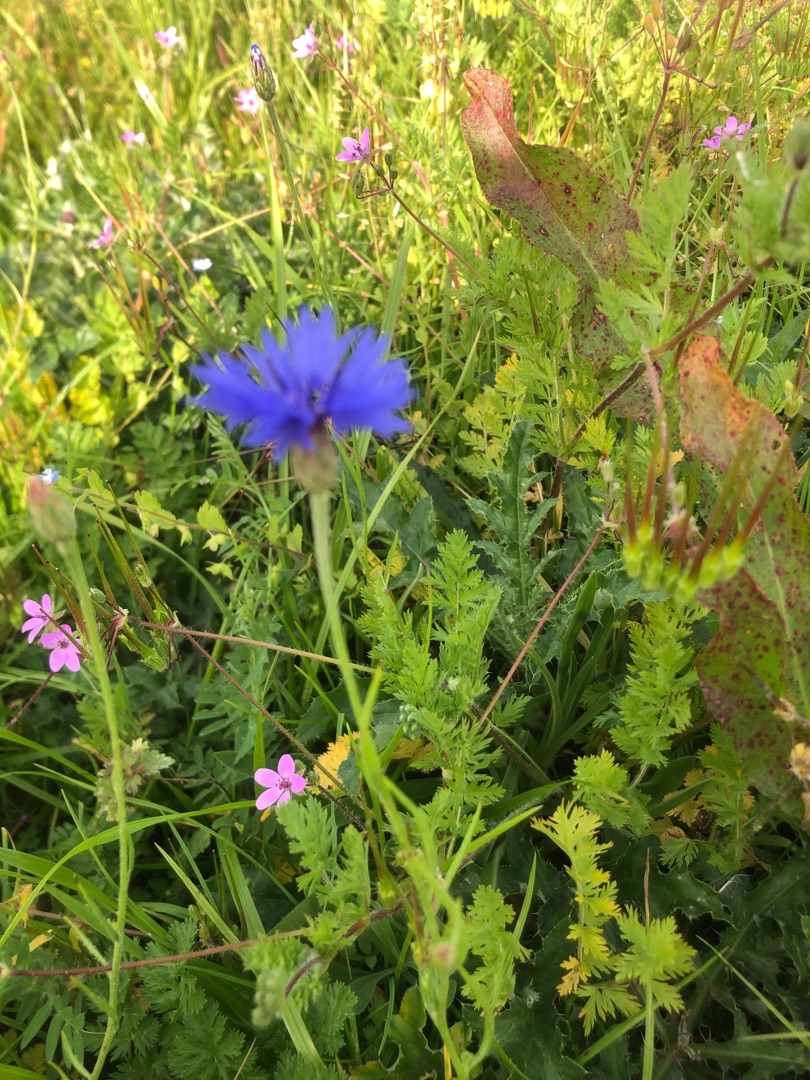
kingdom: Plantae
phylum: Tracheophyta
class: Magnoliopsida
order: Asterales
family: Asteraceae
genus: Centaurea
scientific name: Centaurea cyanus
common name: Kornblomst
